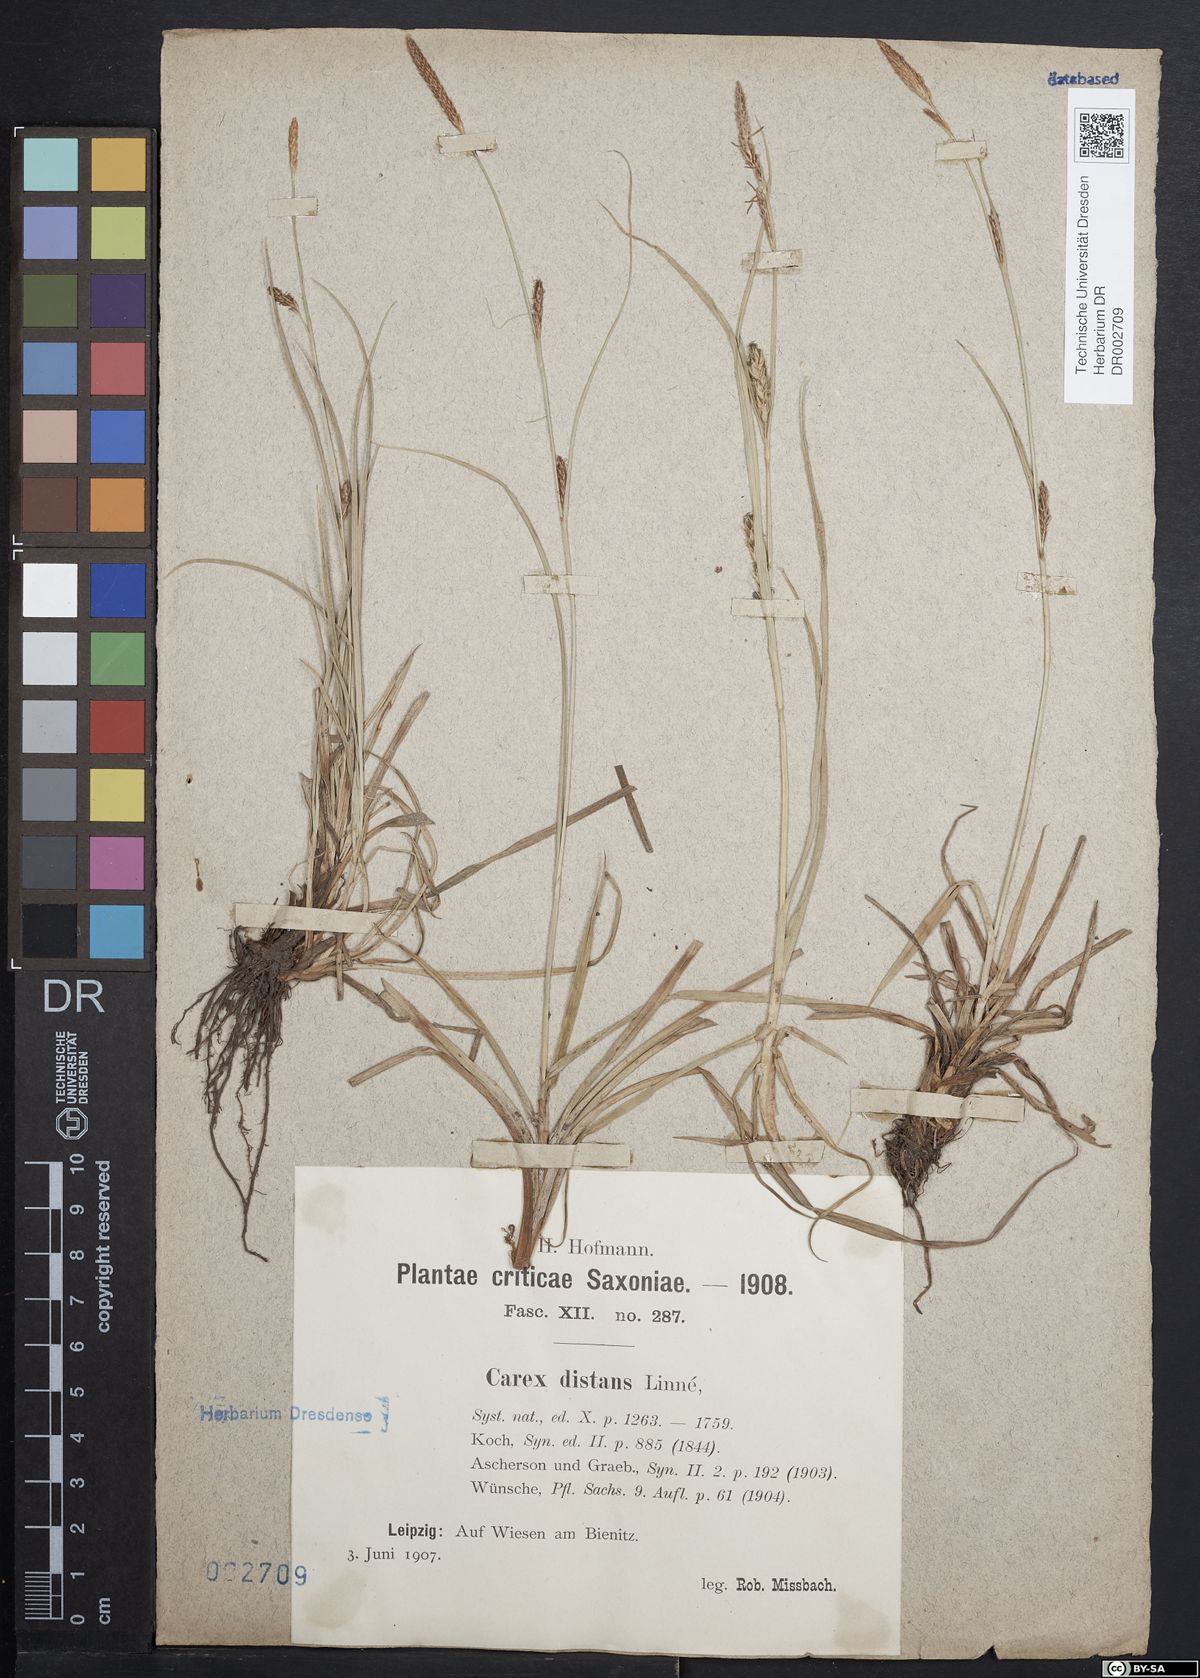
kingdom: Plantae
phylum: Tracheophyta
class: Liliopsida
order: Poales
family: Cyperaceae
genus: Carex
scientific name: Carex distans
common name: Distant sedge
